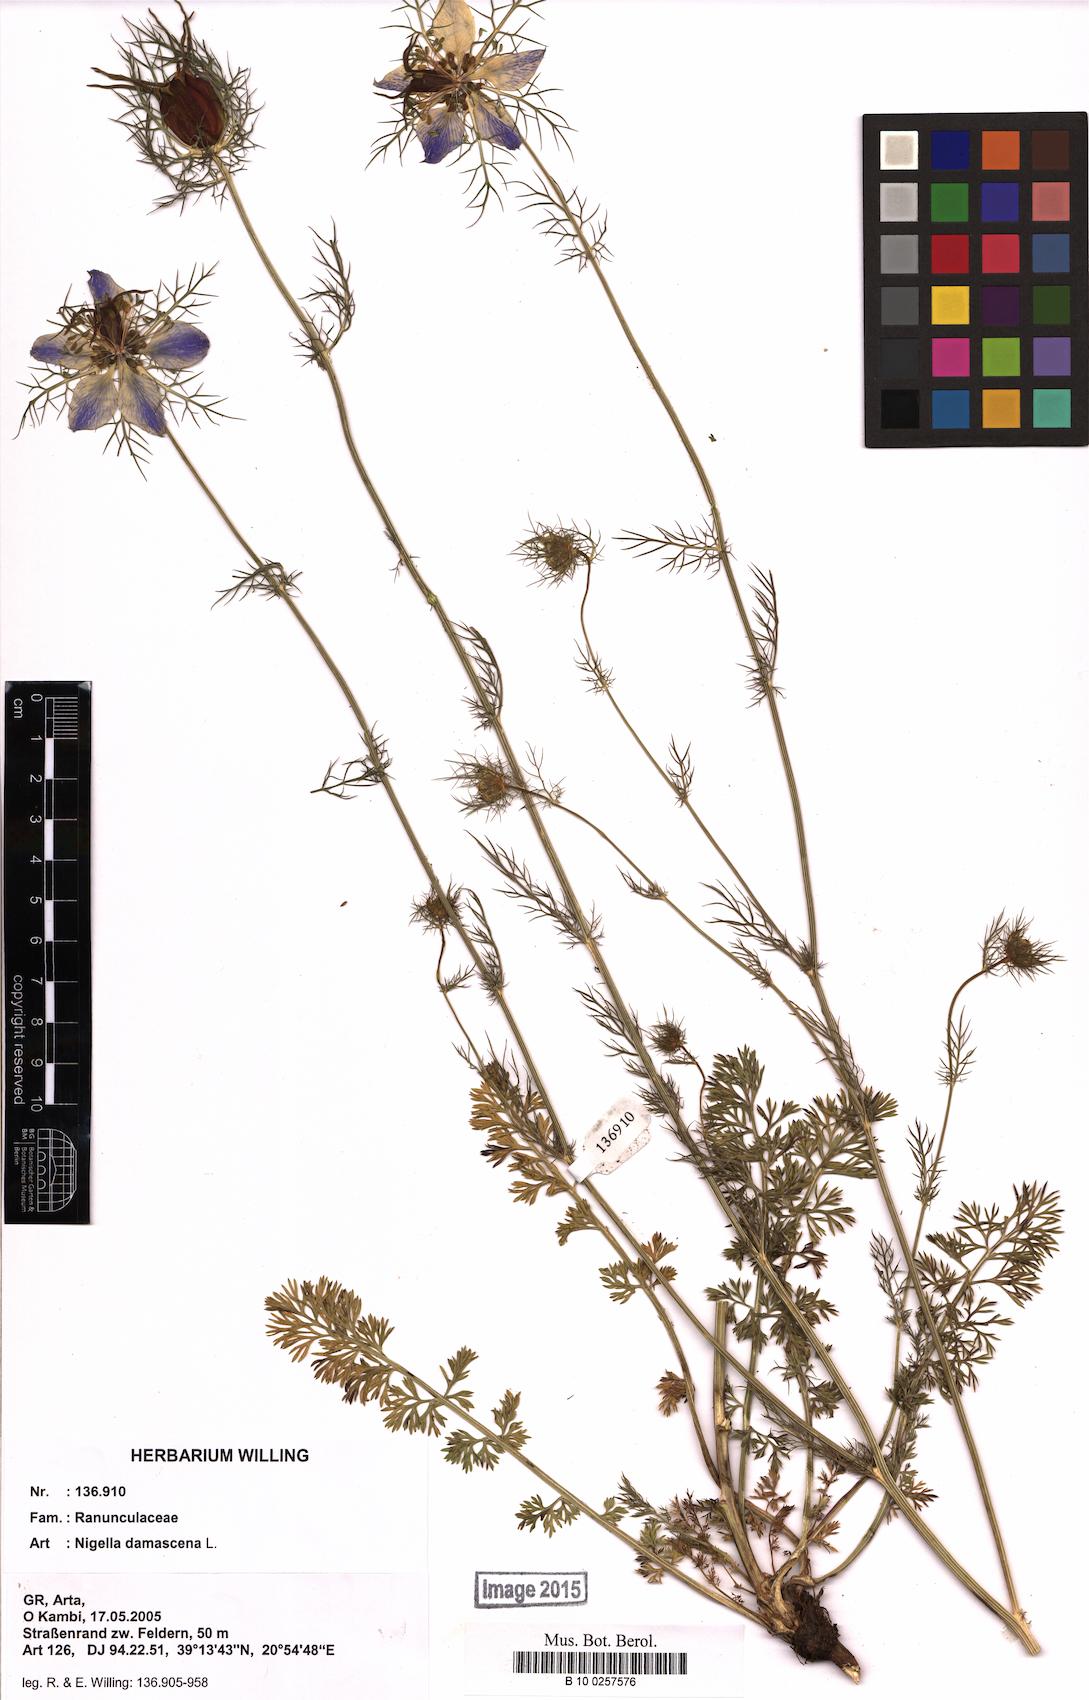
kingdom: Plantae
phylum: Tracheophyta
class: Magnoliopsida
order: Ranunculales
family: Ranunculaceae
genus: Nigella
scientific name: Nigella damascena
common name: Love-in-a-mist
